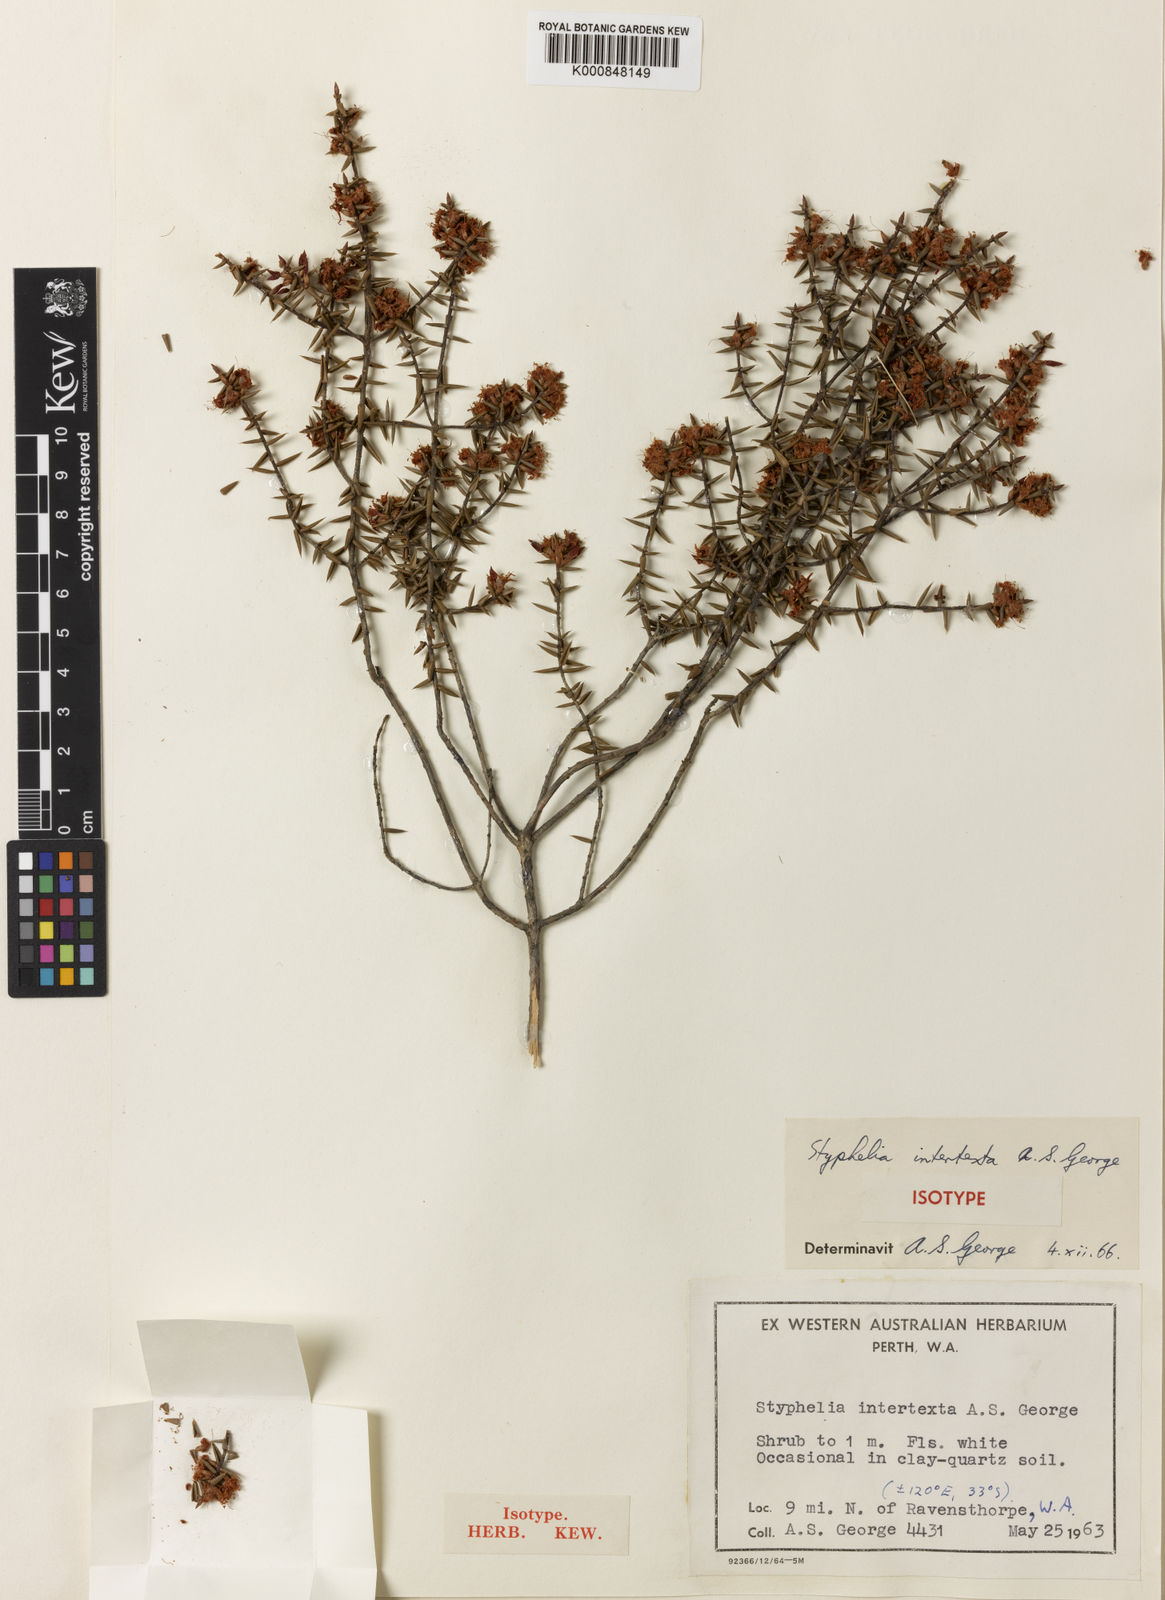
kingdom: Plantae
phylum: Tracheophyta
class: Magnoliopsida
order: Ericales
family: Ericaceae
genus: Styphelia
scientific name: Styphelia intertexta
